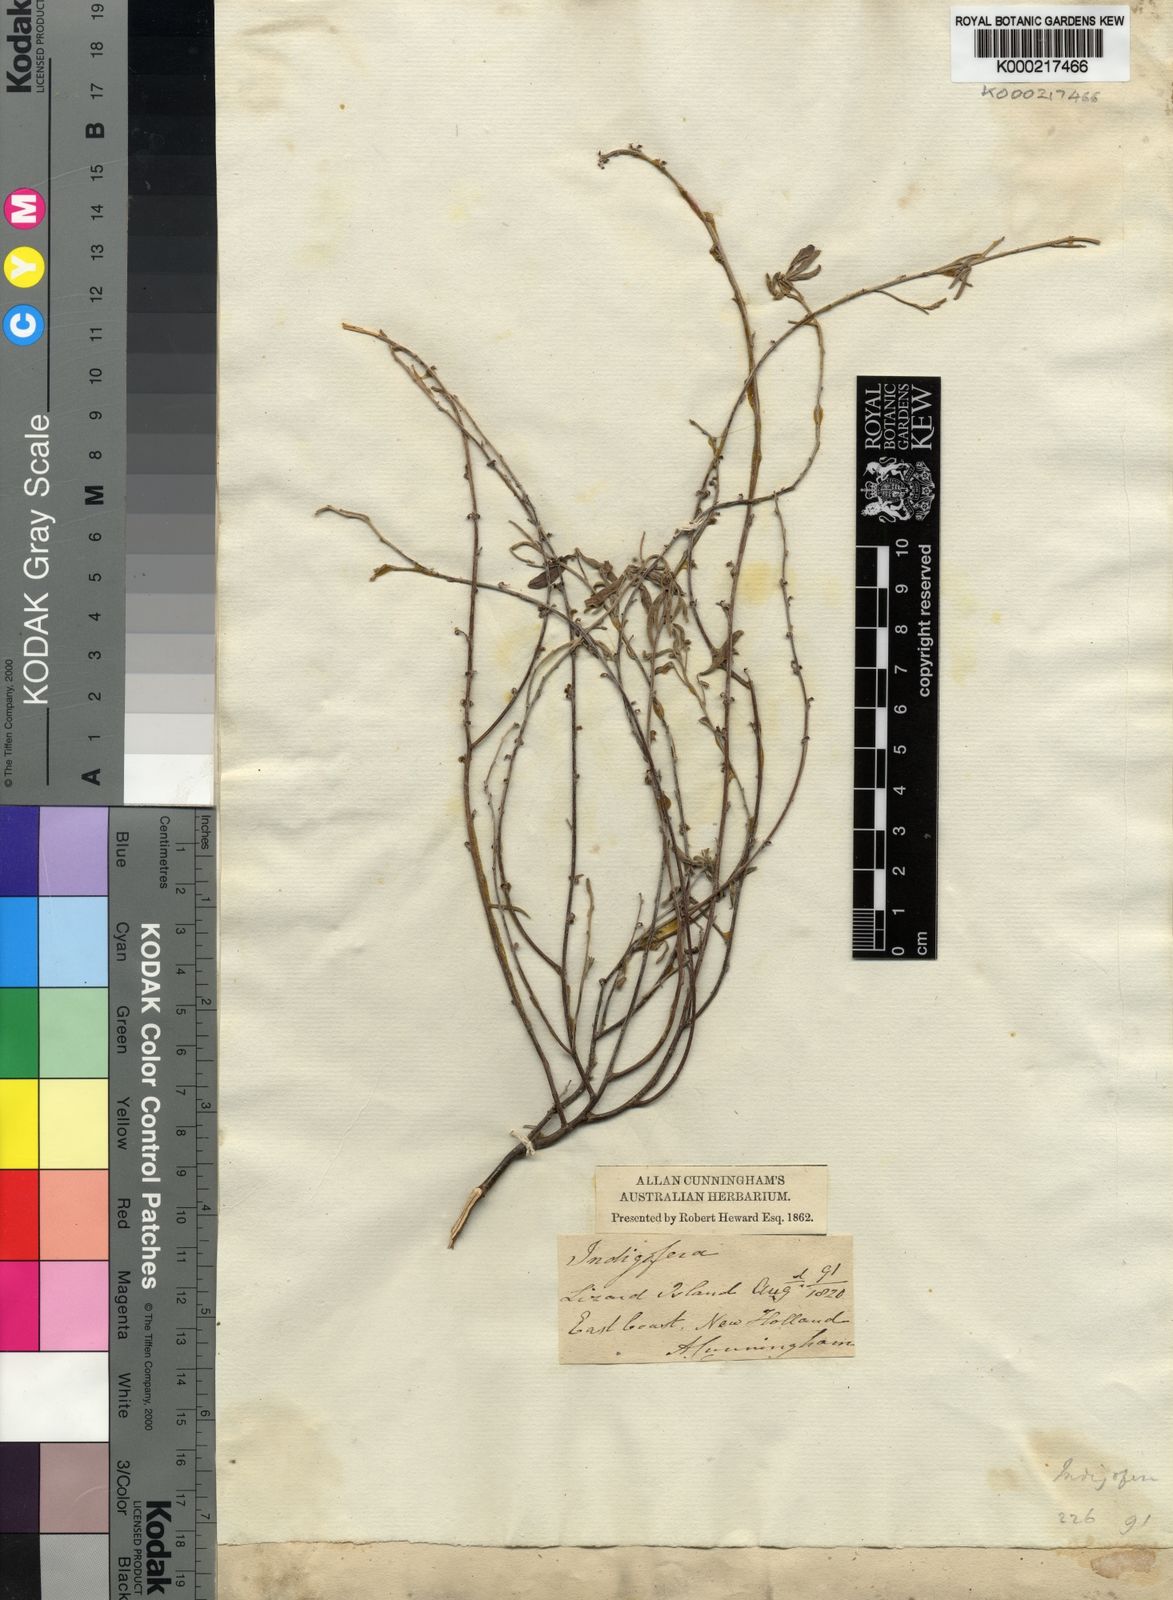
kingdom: Plantae
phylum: Tracheophyta
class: Magnoliopsida
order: Fabales
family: Fabaceae
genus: Indigofera
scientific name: Indigofera
